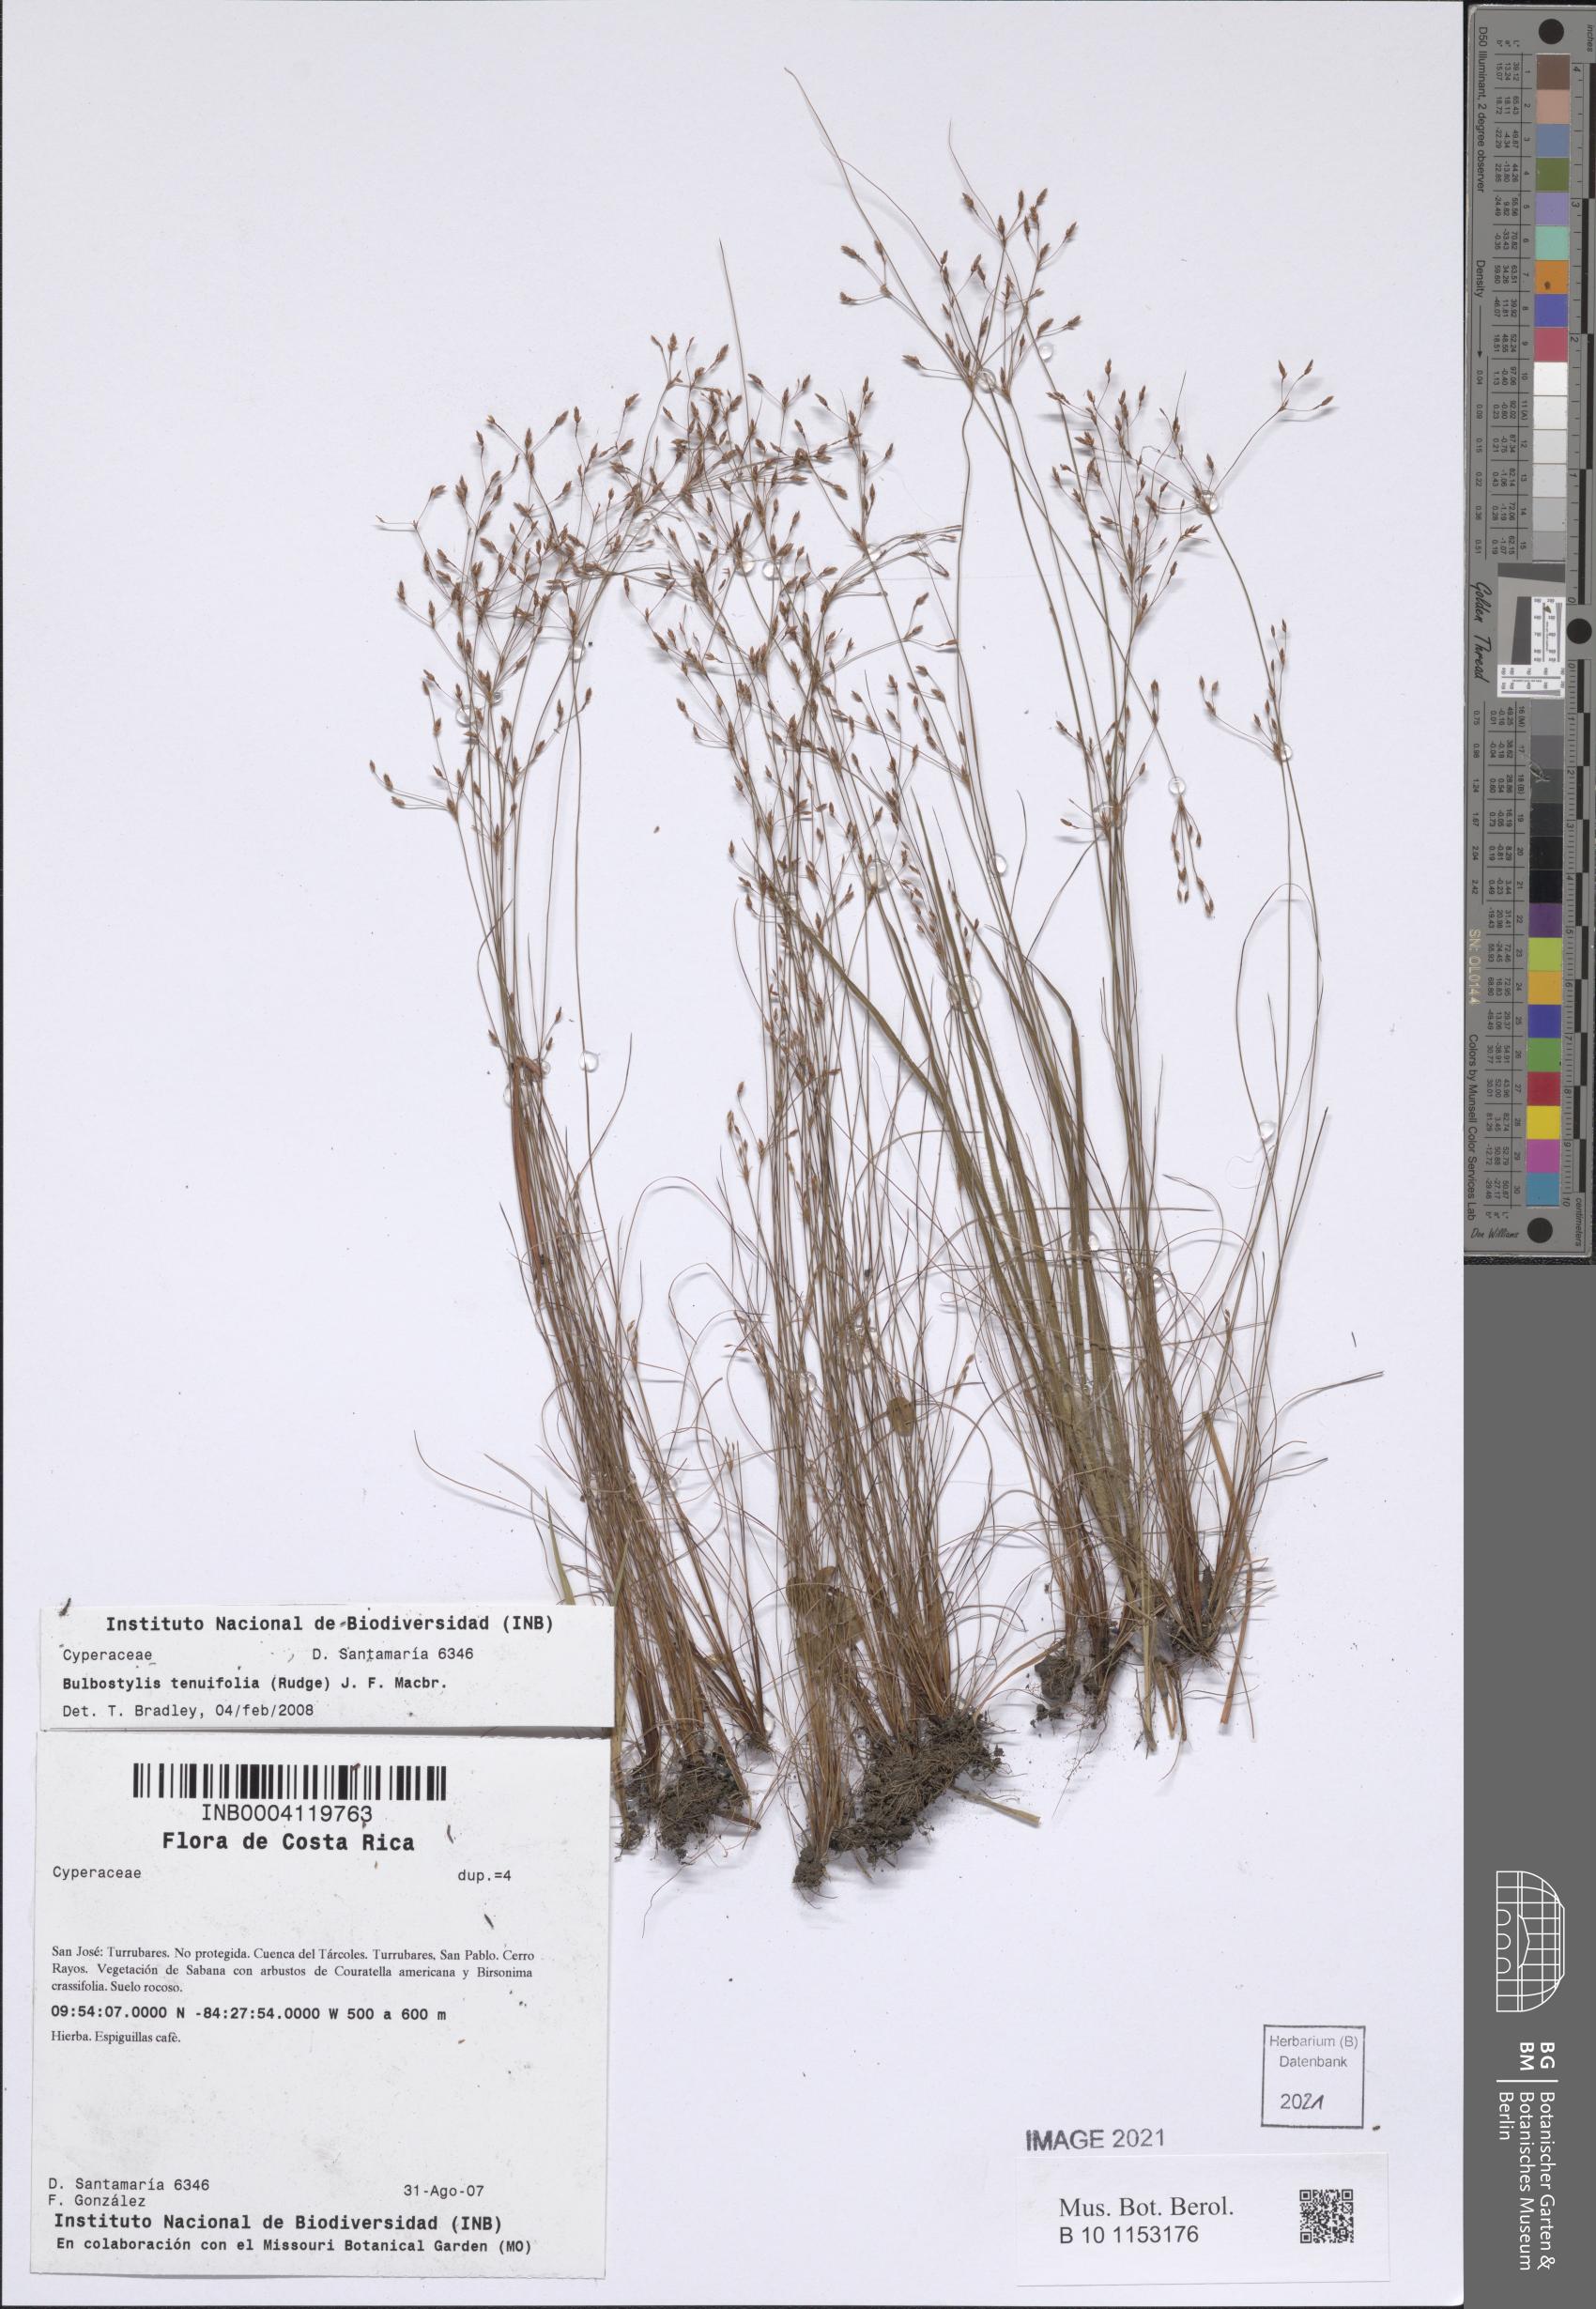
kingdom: Plantae
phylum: Tracheophyta
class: Liliopsida
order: Poales
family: Cyperaceae
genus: Bulbostylis
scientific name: Bulbostylis tenuifolia
